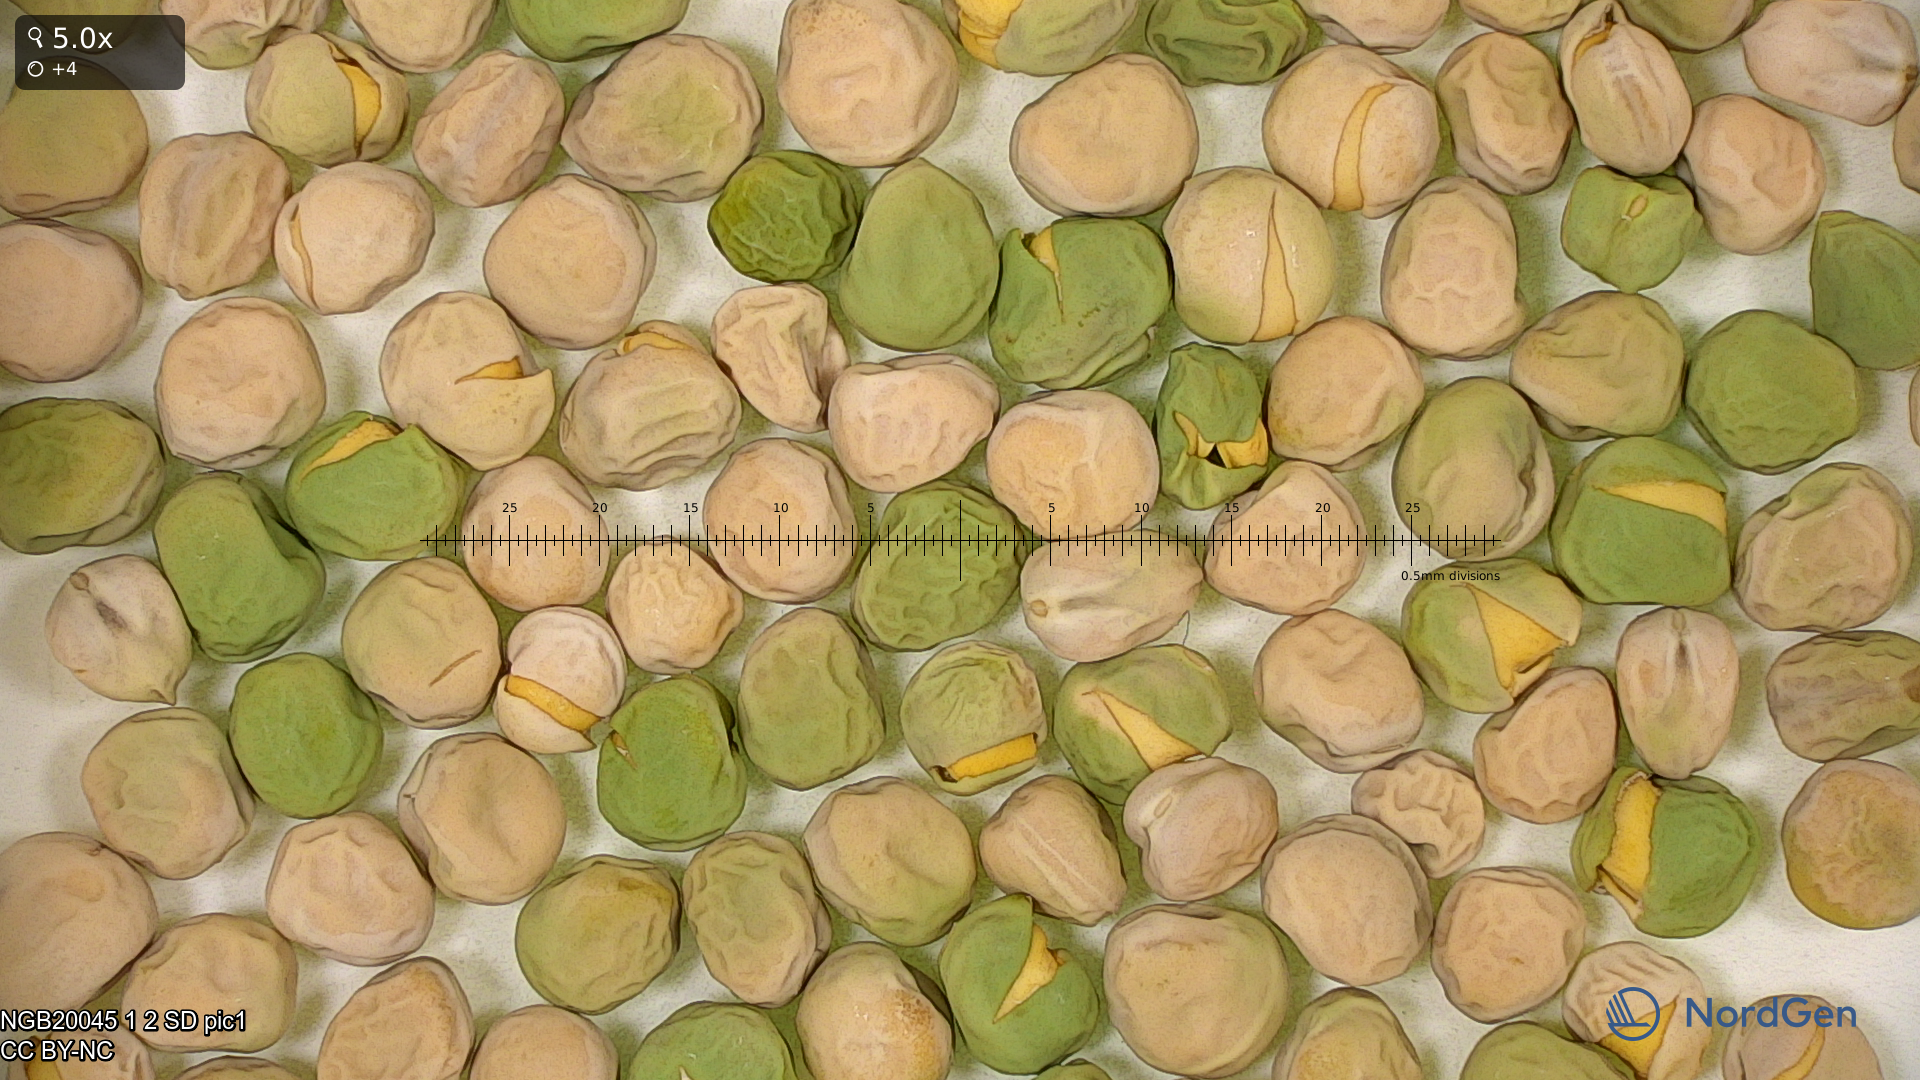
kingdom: Plantae
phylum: Tracheophyta
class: Magnoliopsida
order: Fabales
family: Fabaceae
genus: Lathyrus
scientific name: Lathyrus oleraceus
